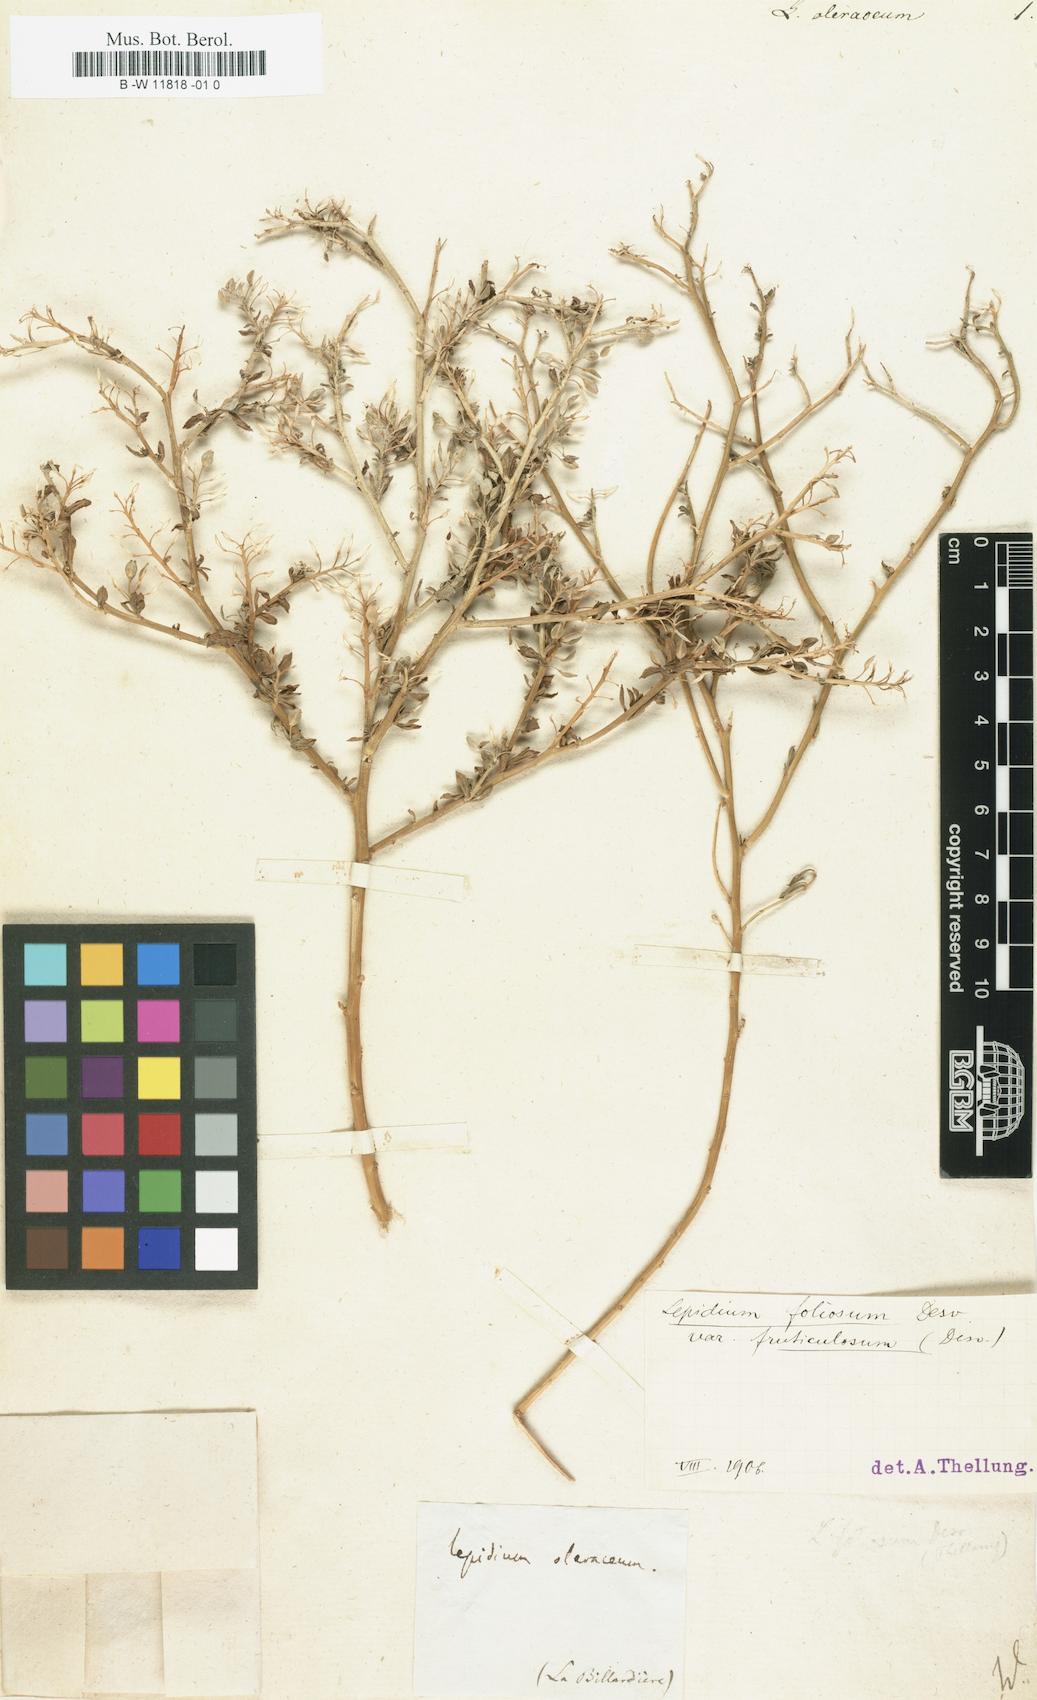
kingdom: Plantae
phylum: Tracheophyta
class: Magnoliopsida
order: Brassicales
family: Brassicaceae
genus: Lepidium
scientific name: Lepidium oleraceum
